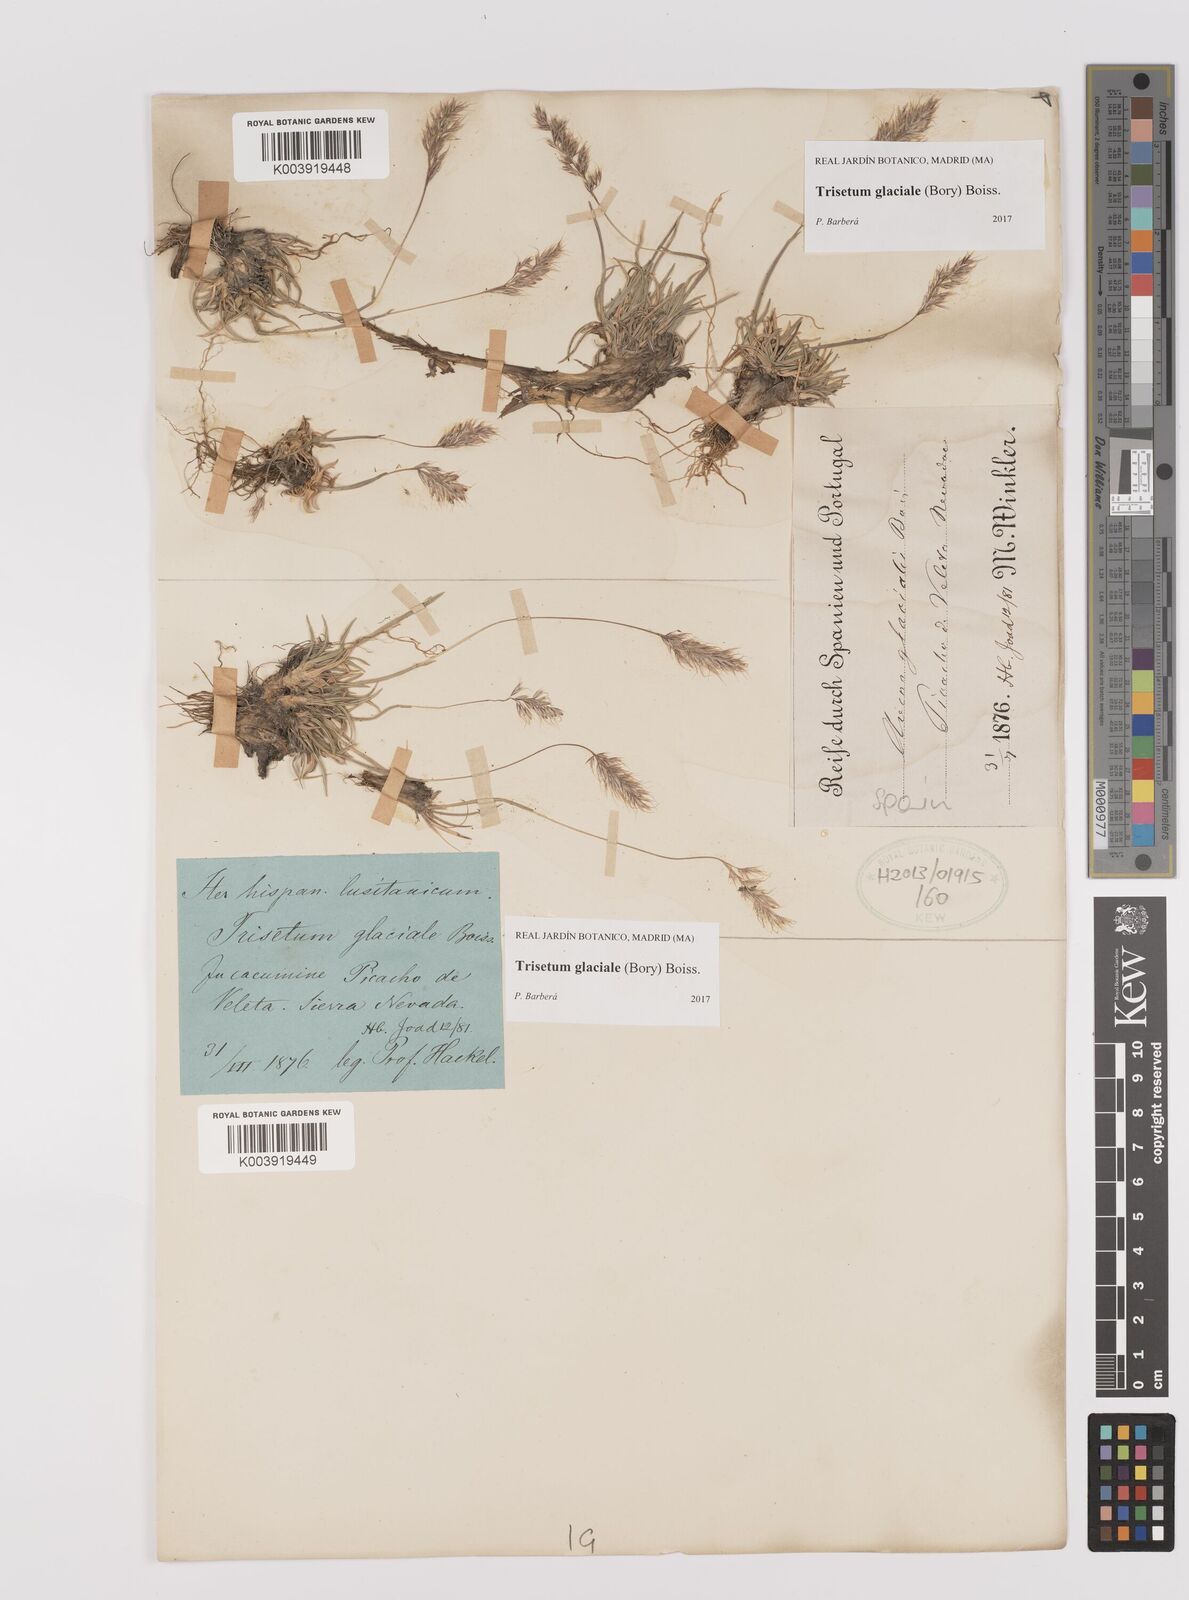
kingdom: Plantae
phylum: Tracheophyta
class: Liliopsida
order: Poales
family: Poaceae
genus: Acrospelion
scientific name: Acrospelion glaciale
